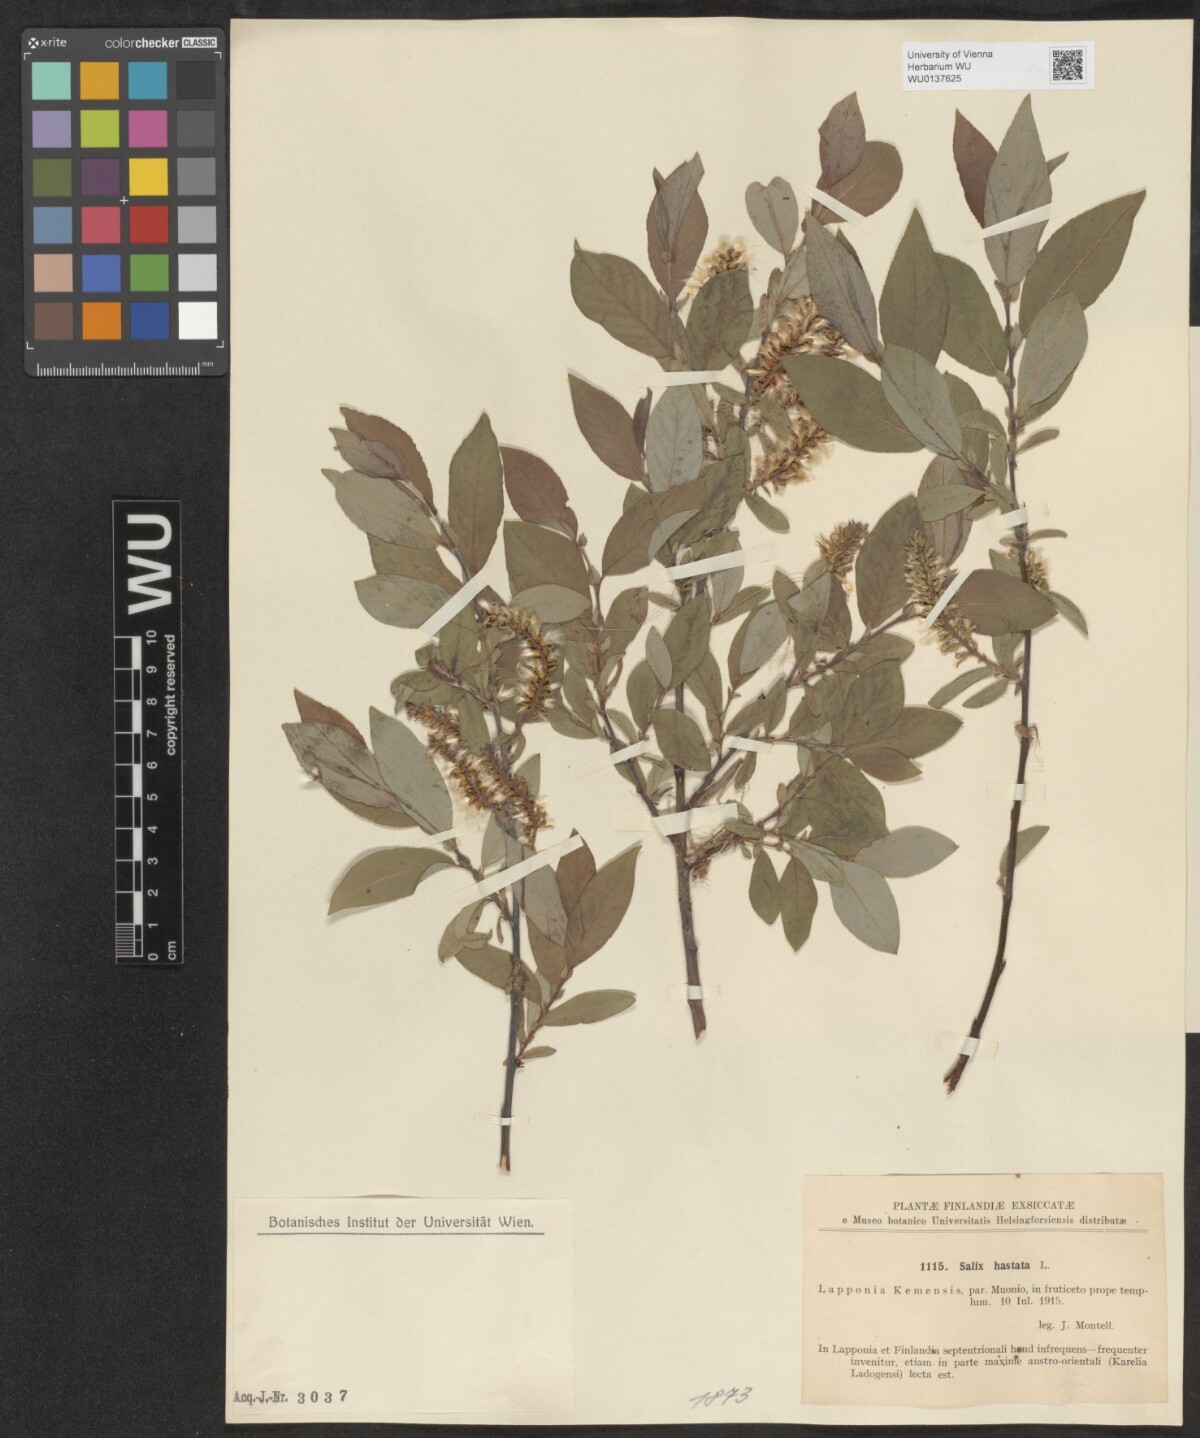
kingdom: Plantae
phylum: Tracheophyta
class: Magnoliopsida
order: Malpighiales
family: Salicaceae
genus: Salix
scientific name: Salix hastata
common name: Halberd willow
